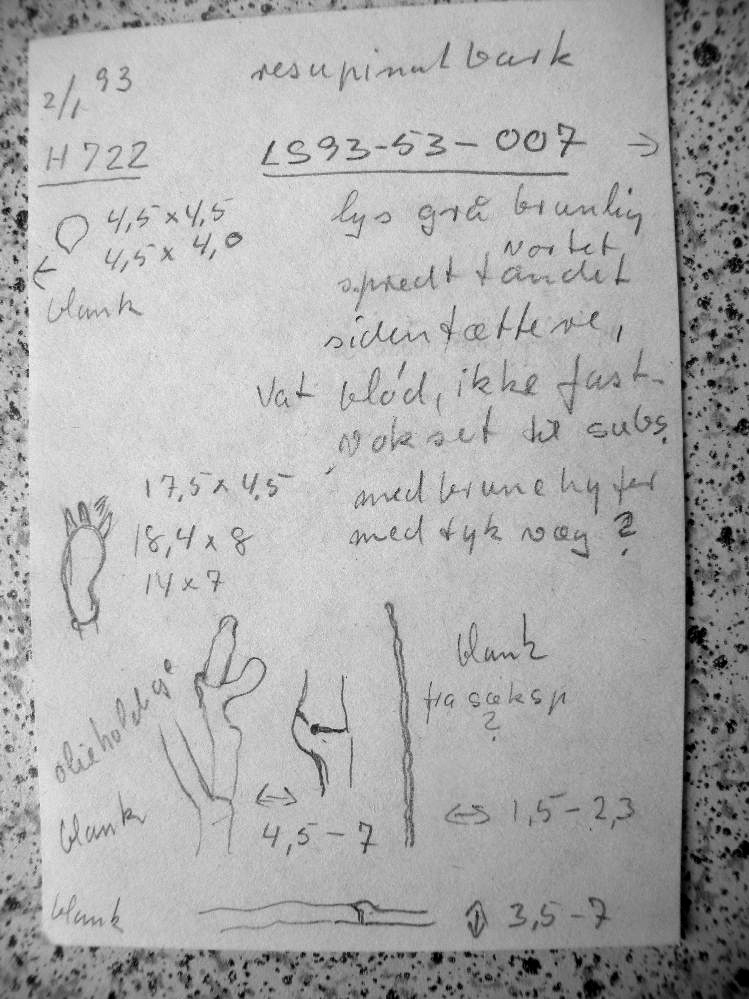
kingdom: Fungi
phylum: Basidiomycota
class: Agaricomycetes
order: Trechisporales
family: Hydnodontaceae
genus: Brevicellicium
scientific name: Brevicellicium olivascens
